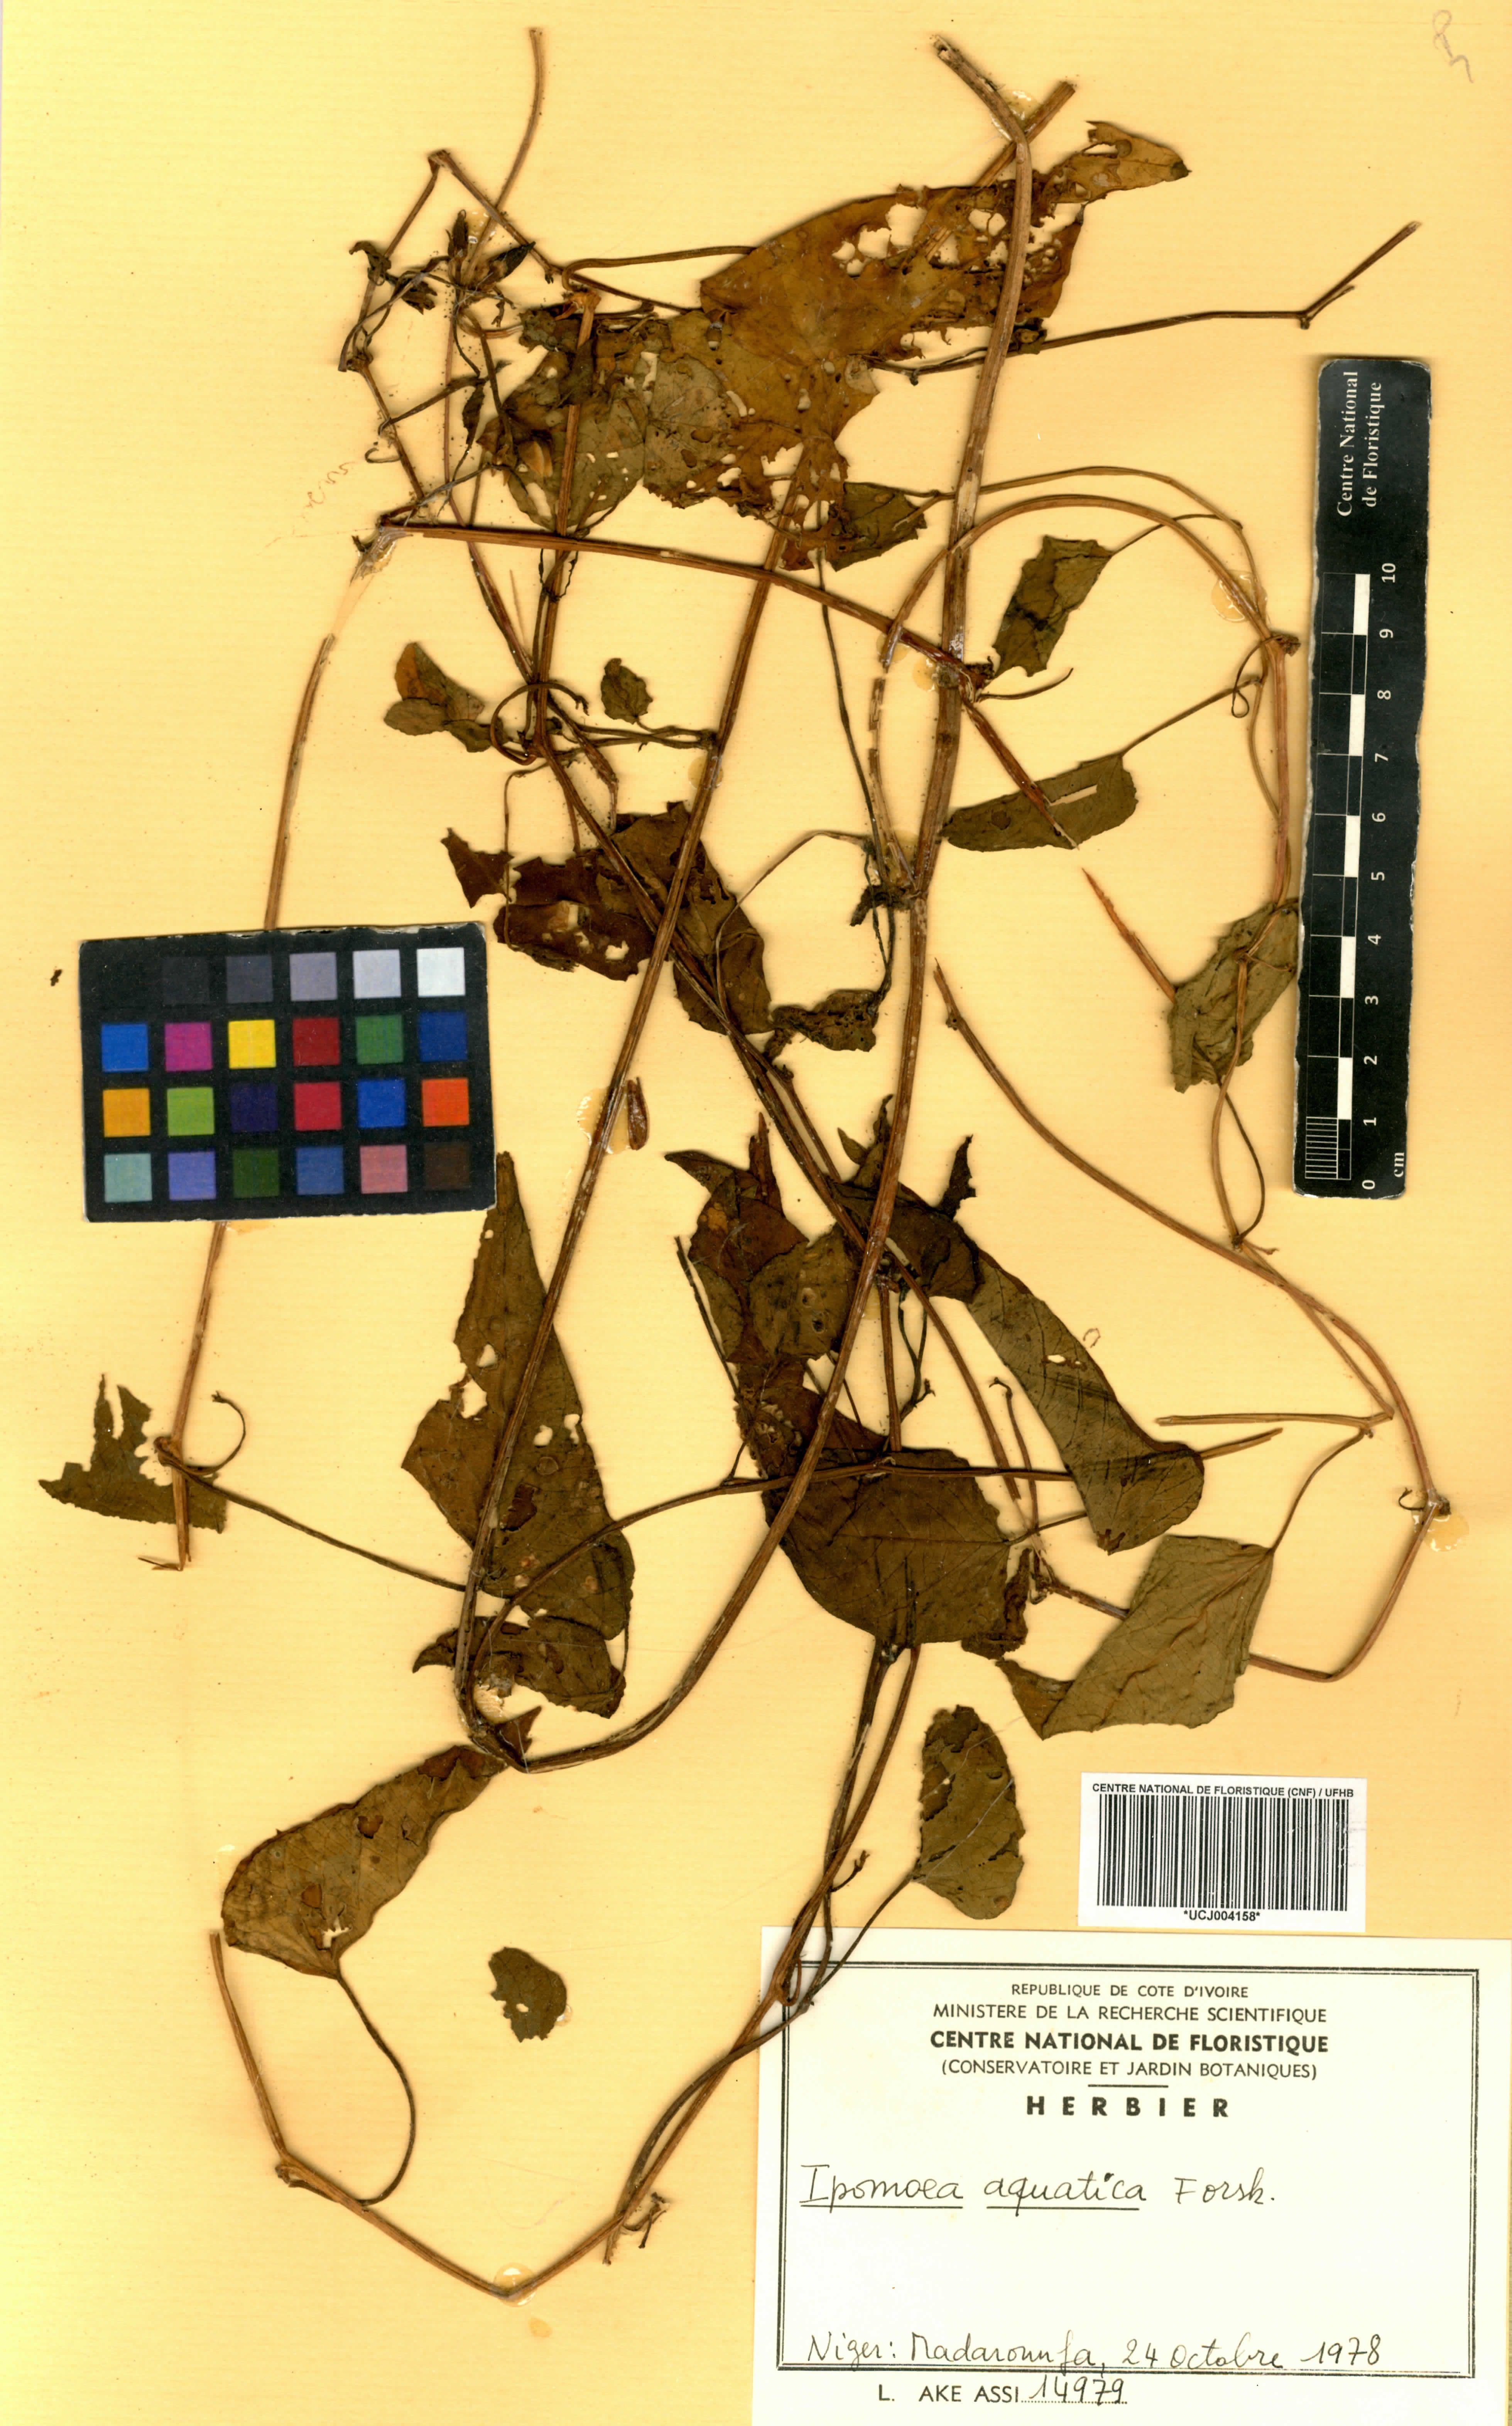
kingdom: Plantae
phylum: Tracheophyta
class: Magnoliopsida
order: Solanales
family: Convolvulaceae
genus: Ipomoea
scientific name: Ipomoea aquatica
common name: Swamp morning-glory
